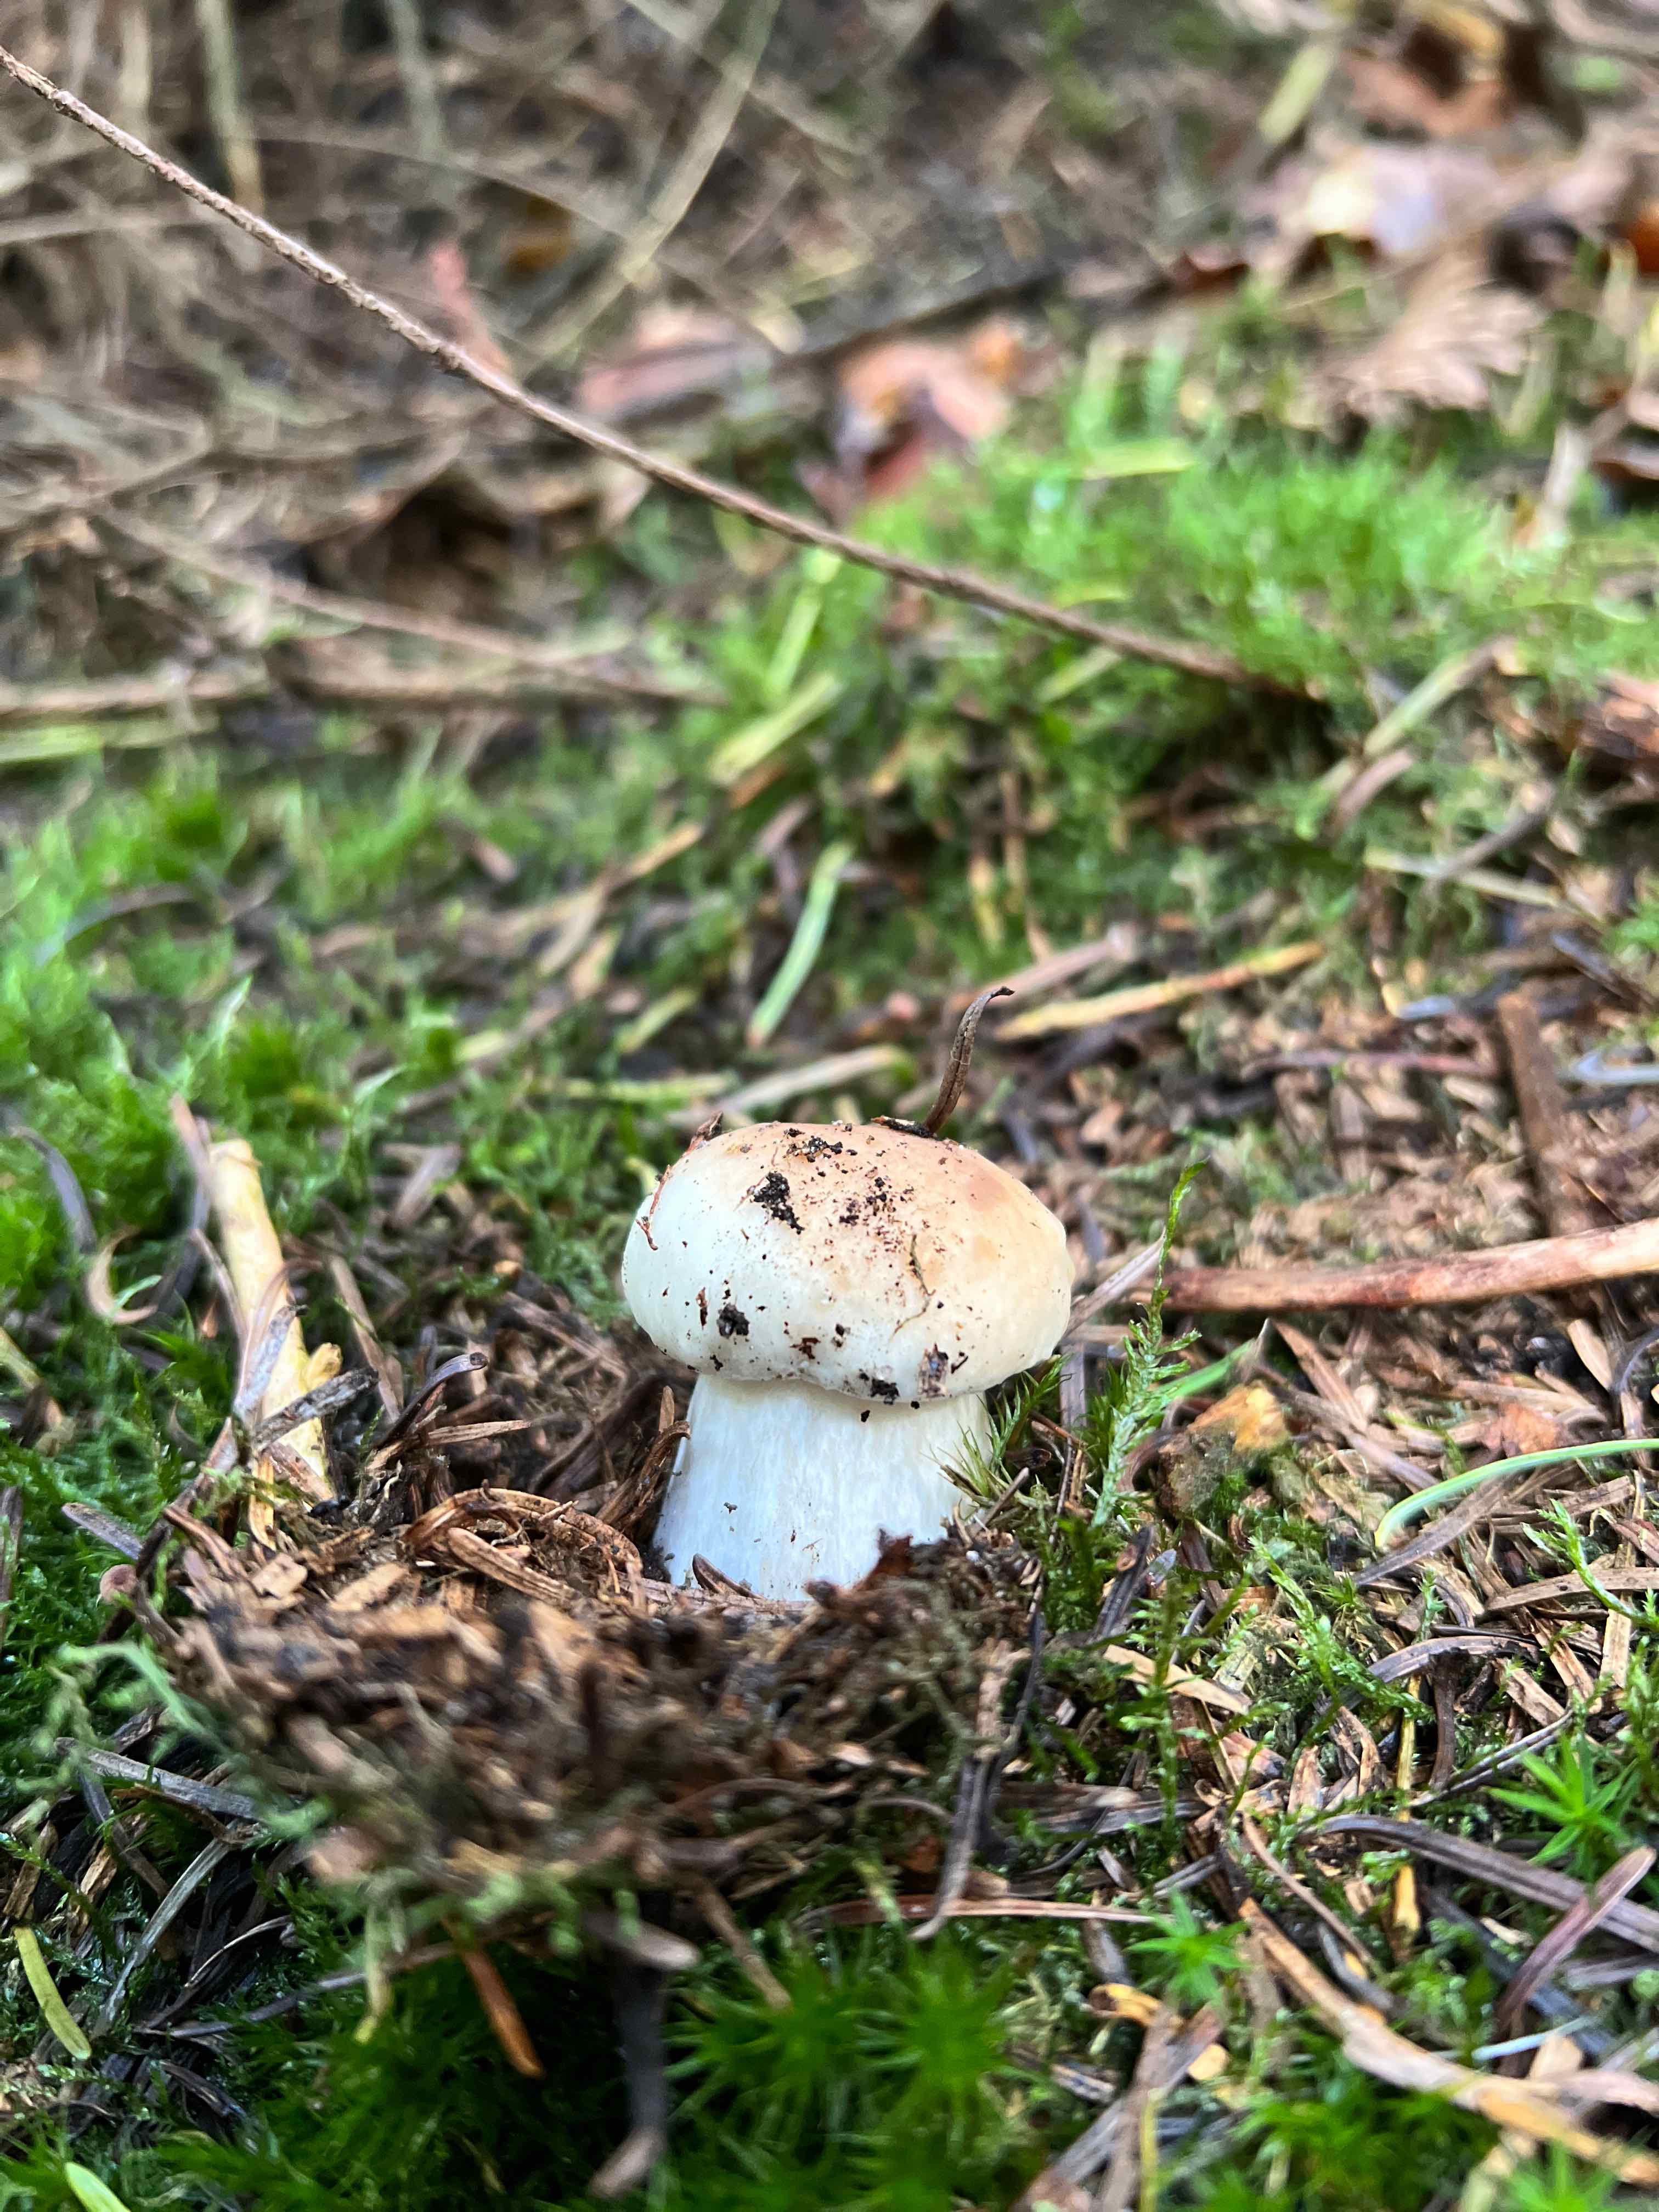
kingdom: Fungi
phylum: Basidiomycota
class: Agaricomycetes
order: Boletales
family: Boletaceae
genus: Boletus
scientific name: Boletus edulis
